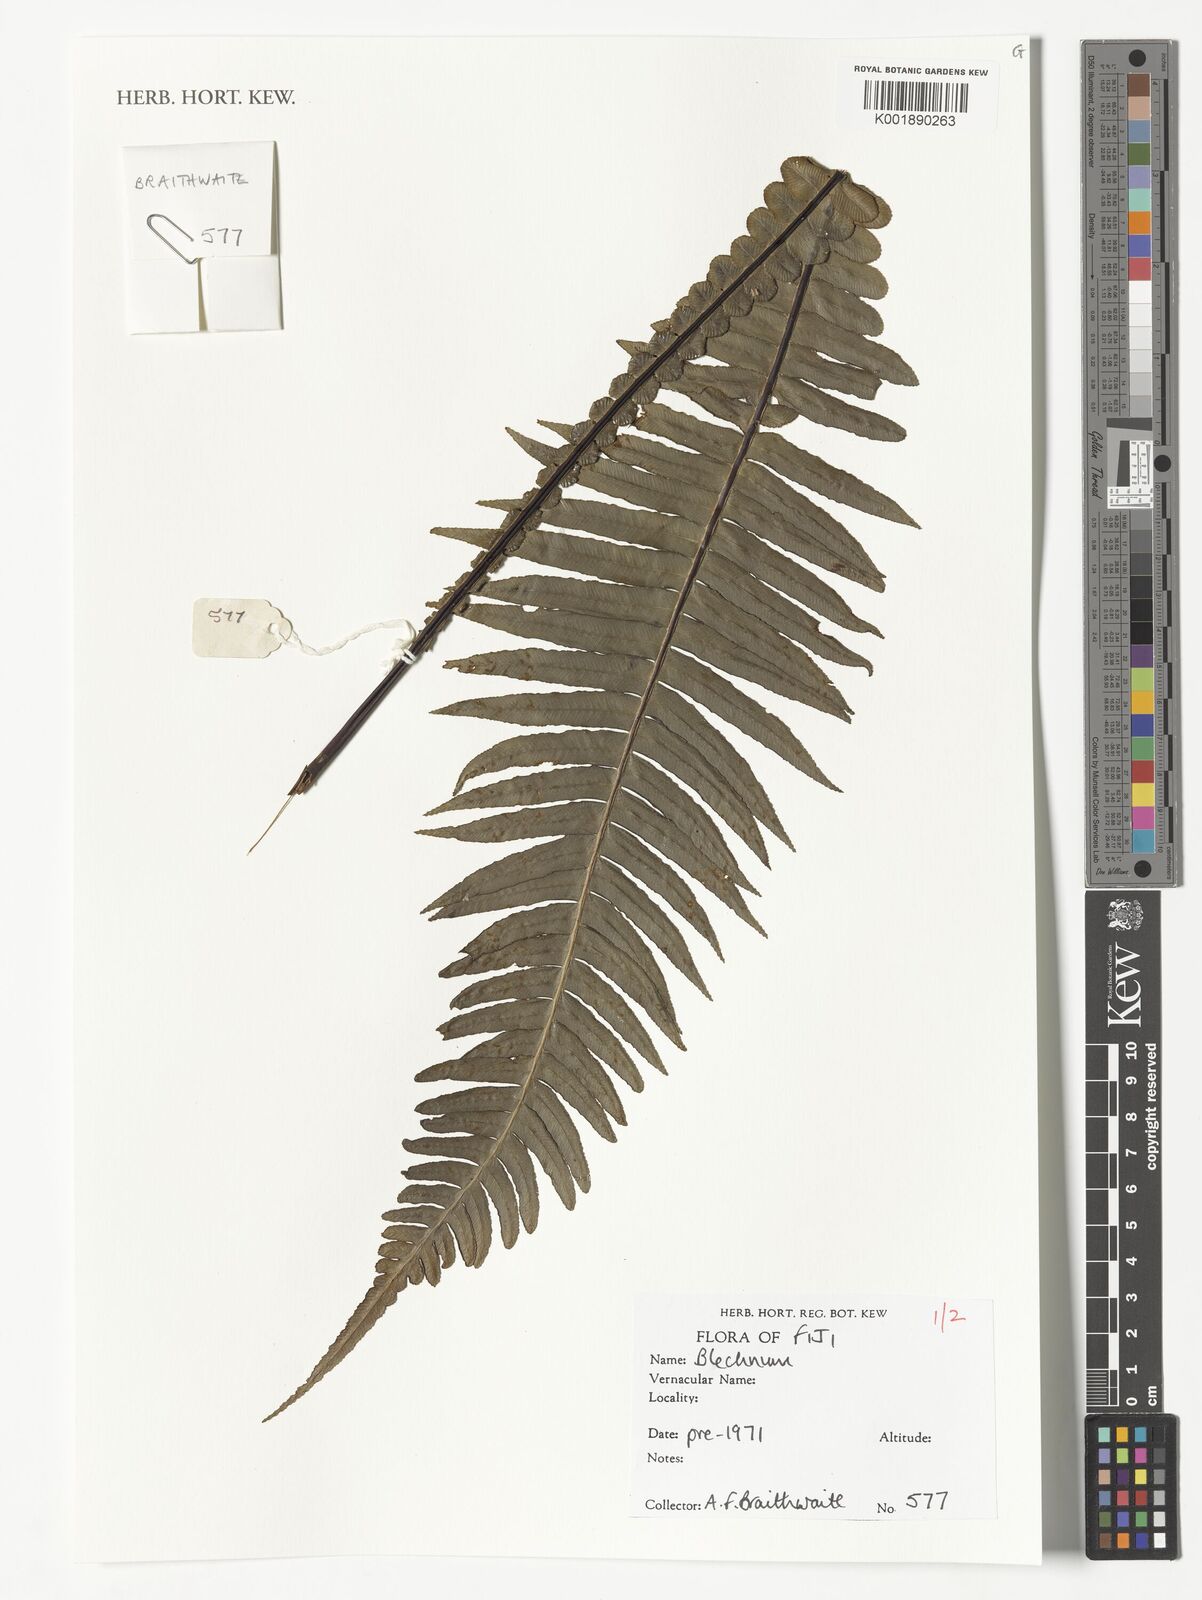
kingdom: Plantae
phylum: Tracheophyta
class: Polypodiopsida
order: Polypodiales
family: Blechnaceae
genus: Blechnum
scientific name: Blechnum
